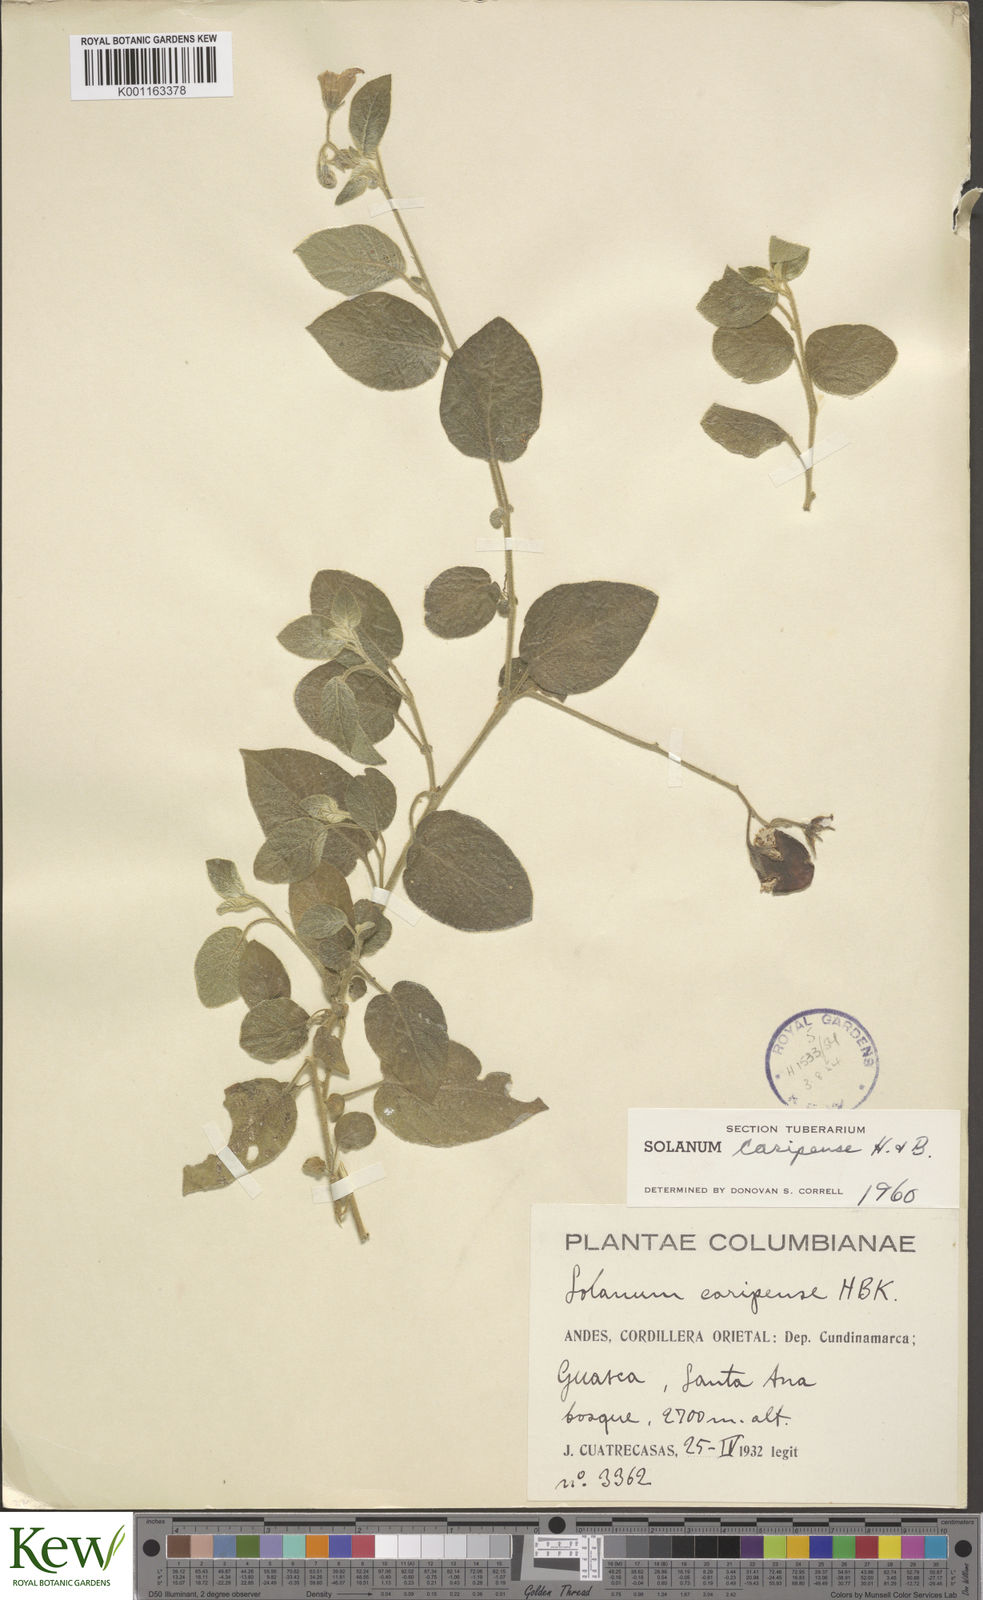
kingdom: Plantae
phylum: Tracheophyta
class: Magnoliopsida
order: Solanales
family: Solanaceae
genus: Solanum
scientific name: Solanum caripense
